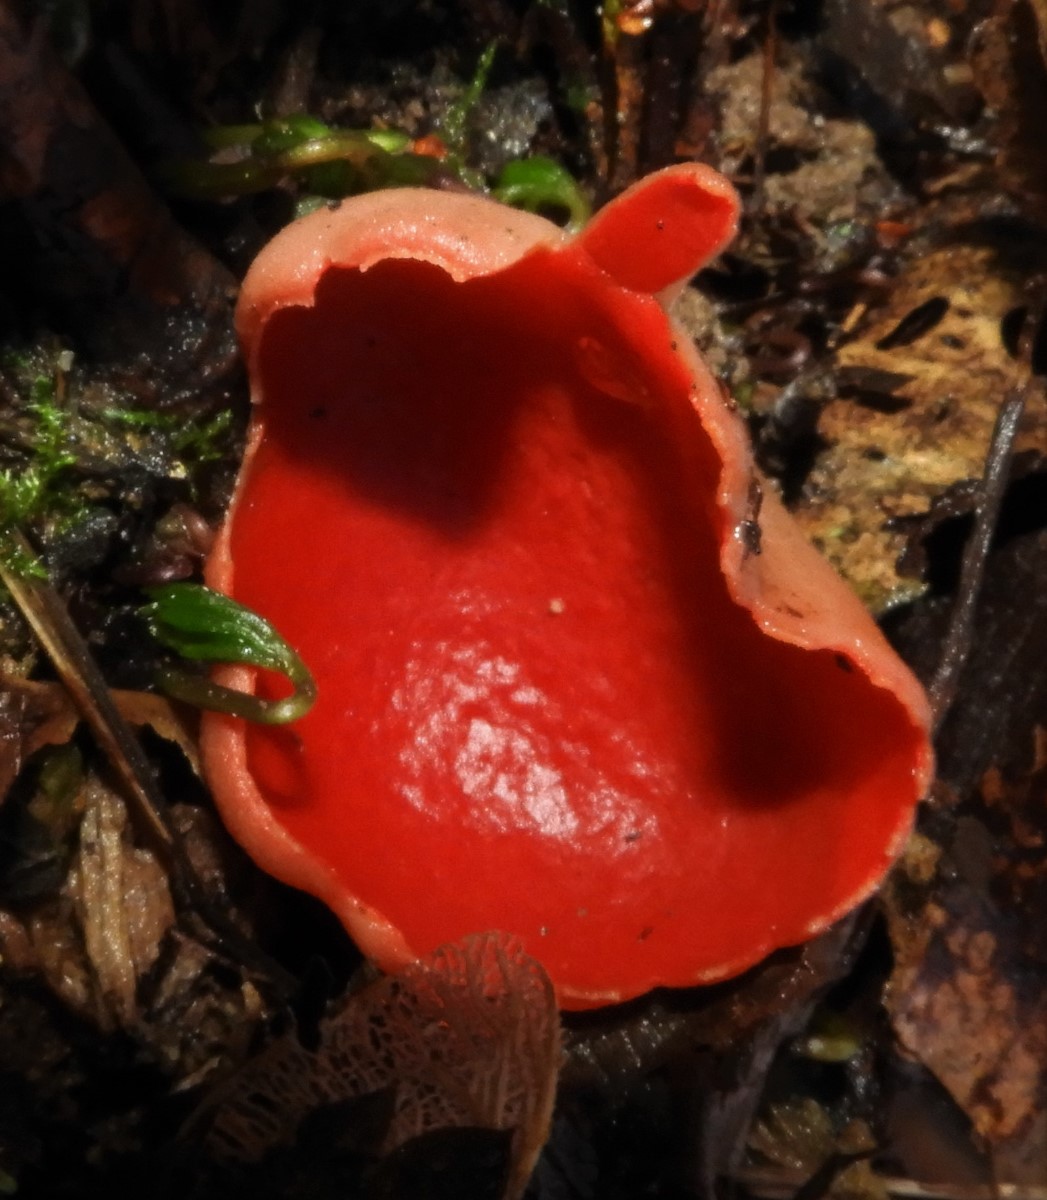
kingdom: Fungi
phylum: Ascomycota
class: Pezizomycetes
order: Pezizales
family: Sarcoscyphaceae
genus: Sarcoscypha
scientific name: Sarcoscypha austriaca
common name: krølhåret pragtbæger
